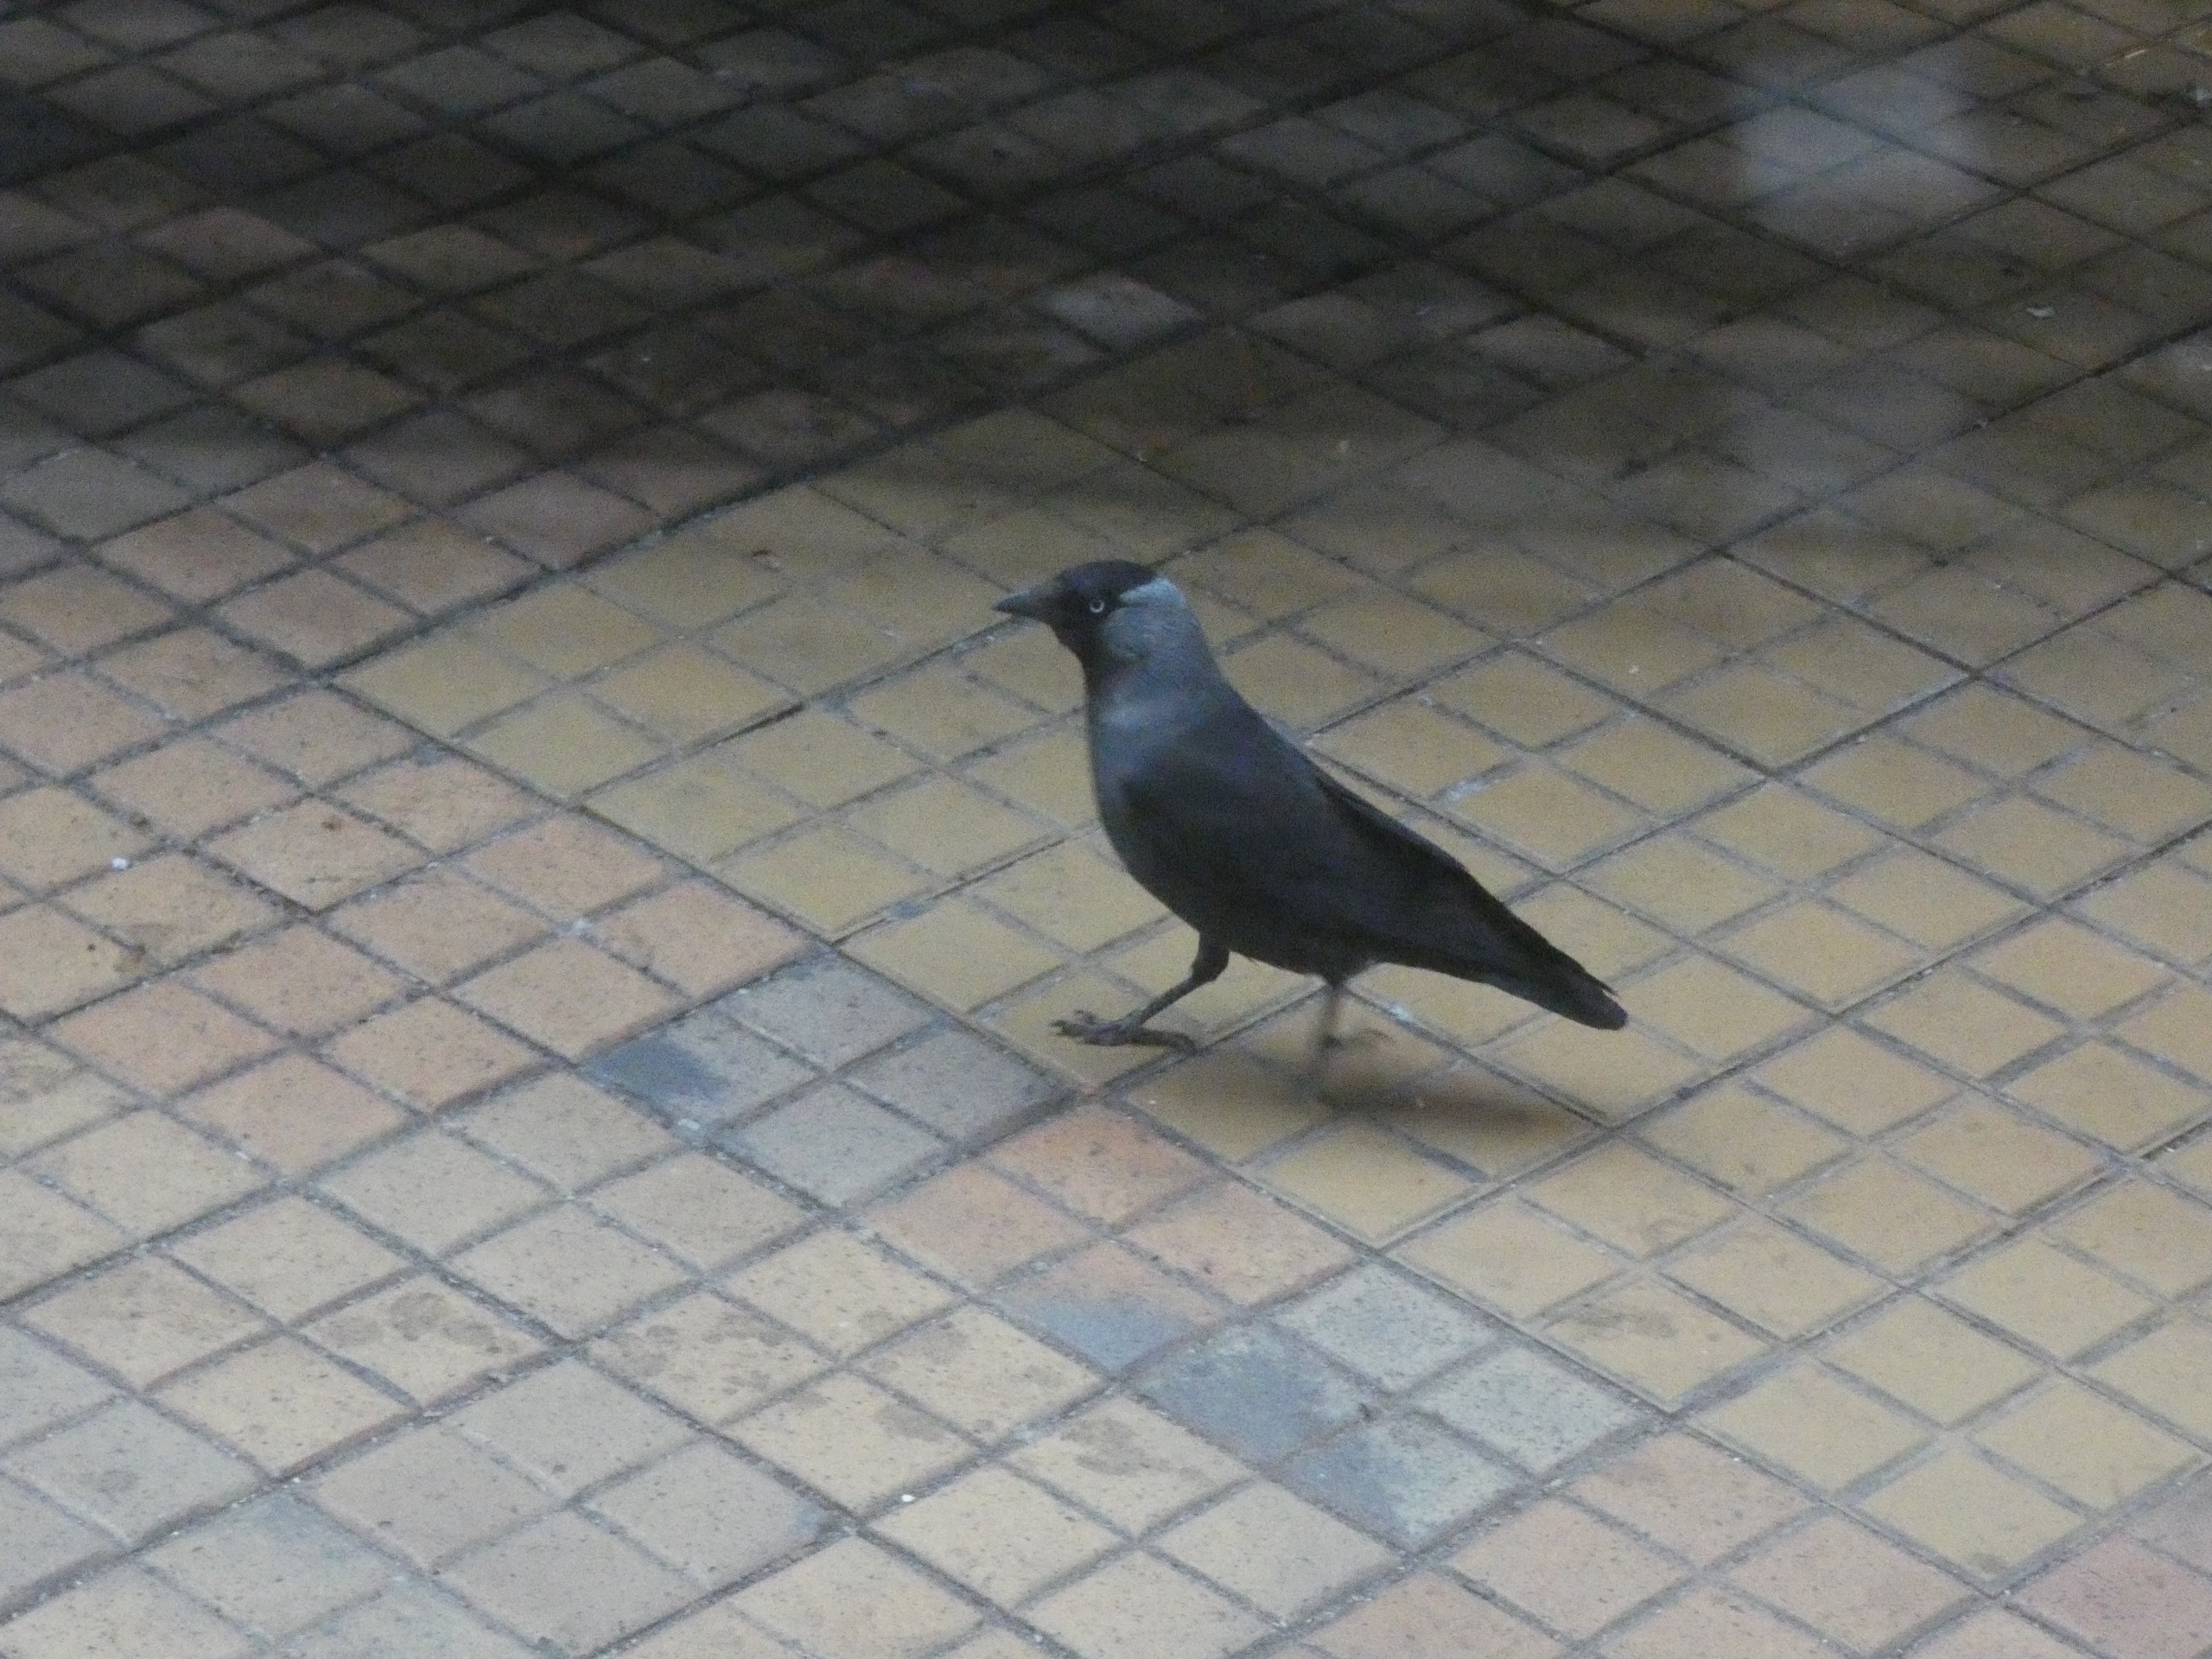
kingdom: Animalia
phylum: Chordata
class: Aves
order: Passeriformes
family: Corvidae
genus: Coloeus
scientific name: Coloeus monedula
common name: Allike
